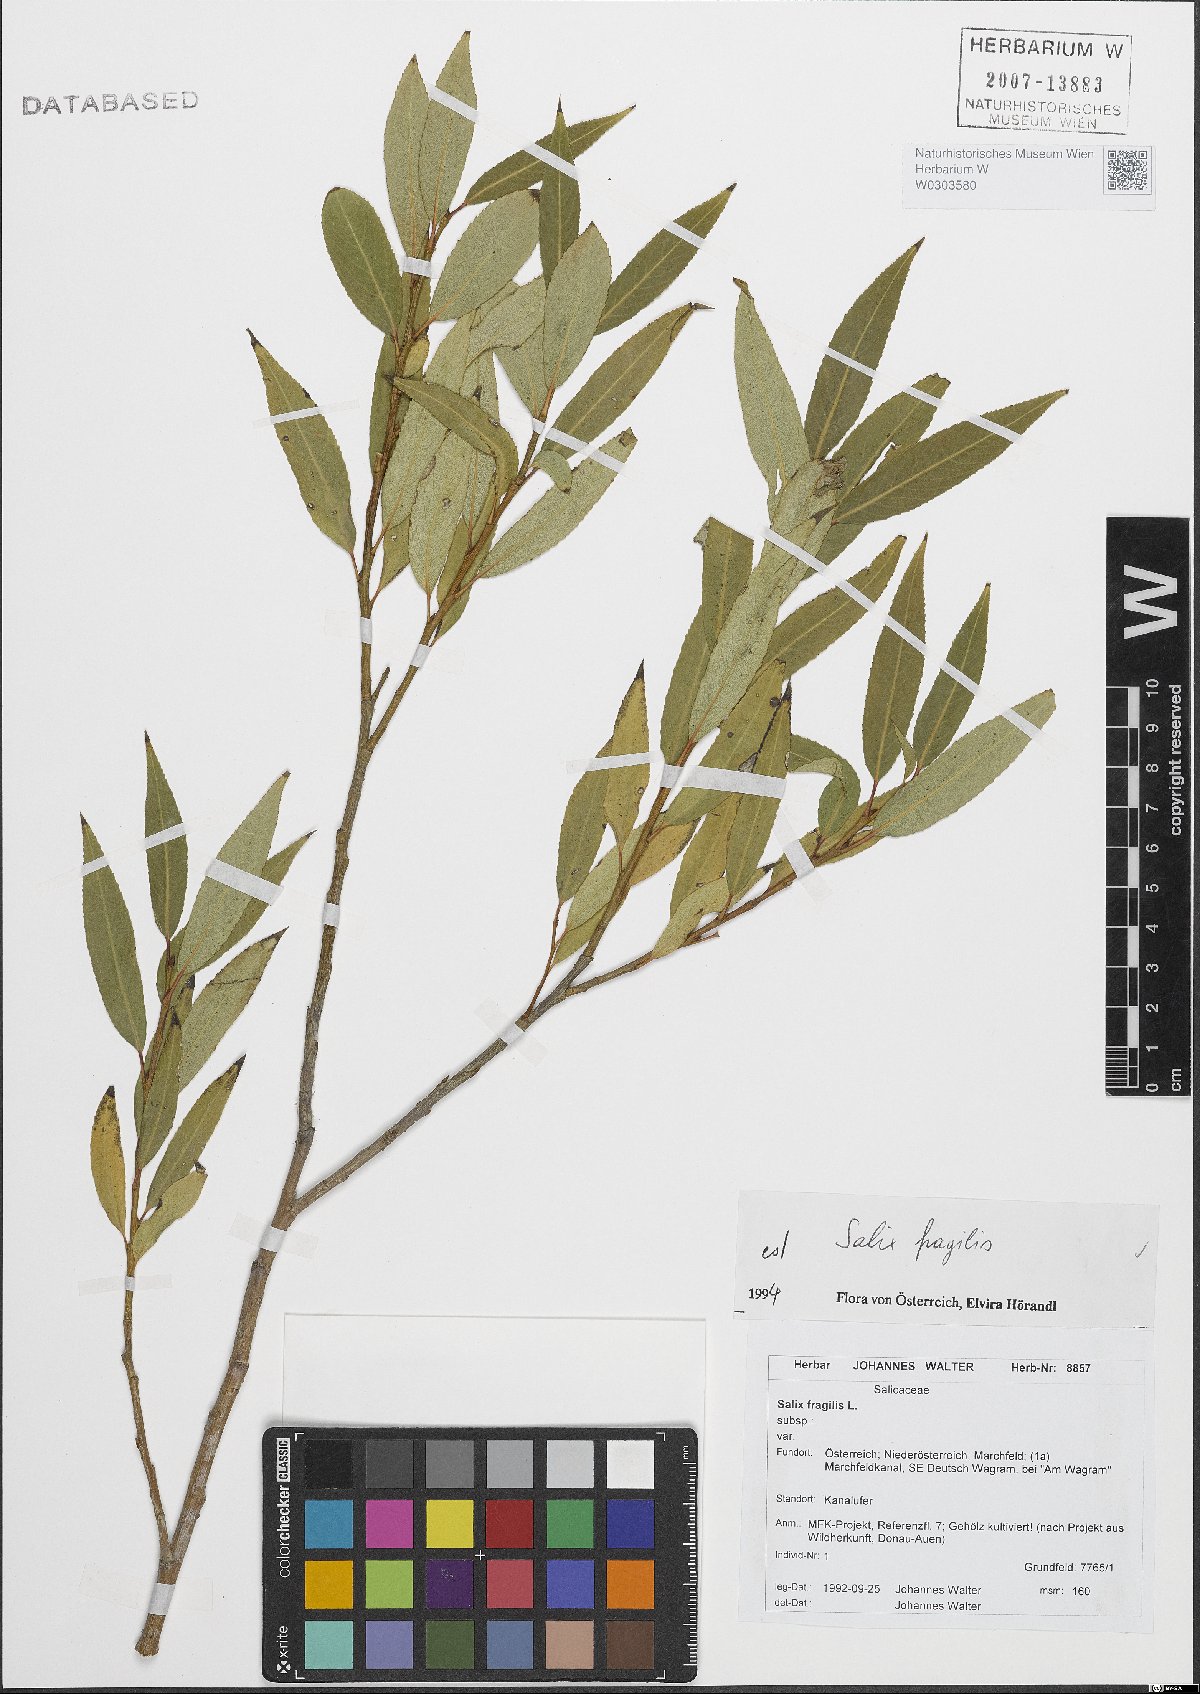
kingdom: Plantae
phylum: Tracheophyta
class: Magnoliopsida
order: Malpighiales
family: Salicaceae
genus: Salix
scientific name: Salix fragilis
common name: Crack willow
